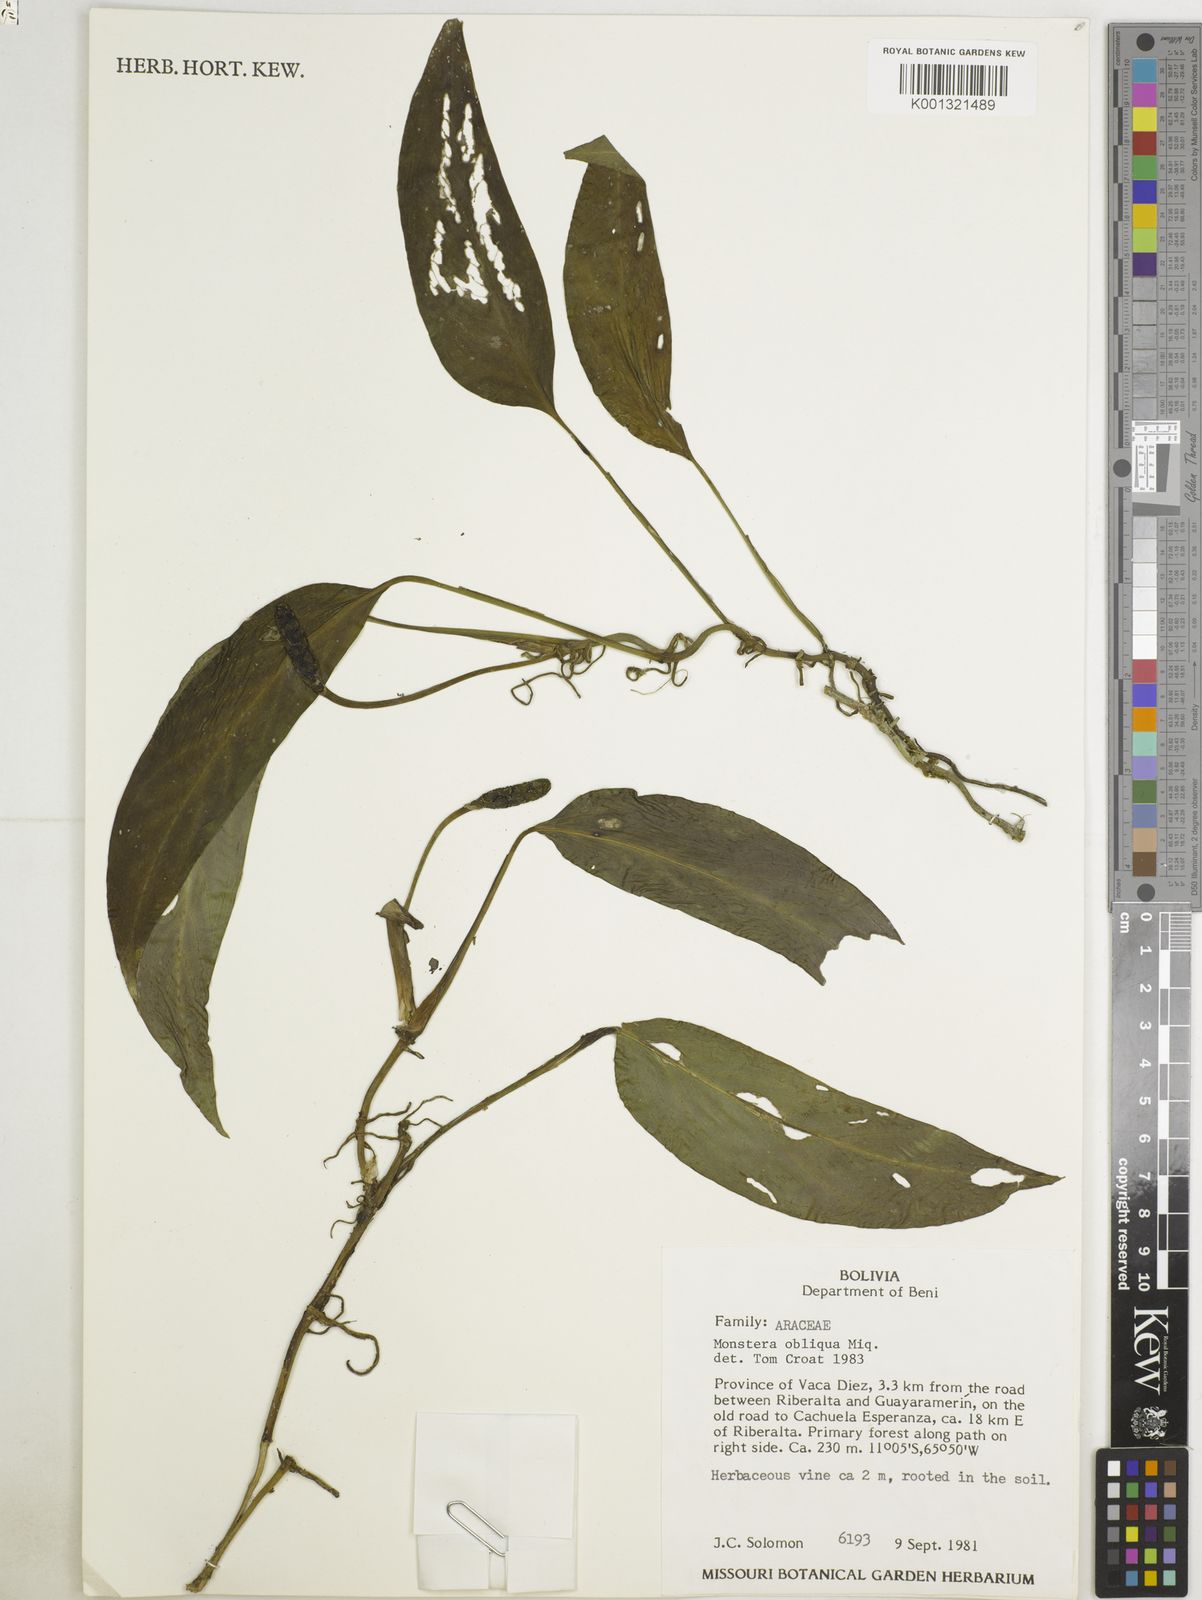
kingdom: Plantae
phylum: Tracheophyta
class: Liliopsida
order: Alismatales
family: Araceae
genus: Monstera
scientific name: Monstera obliqua
